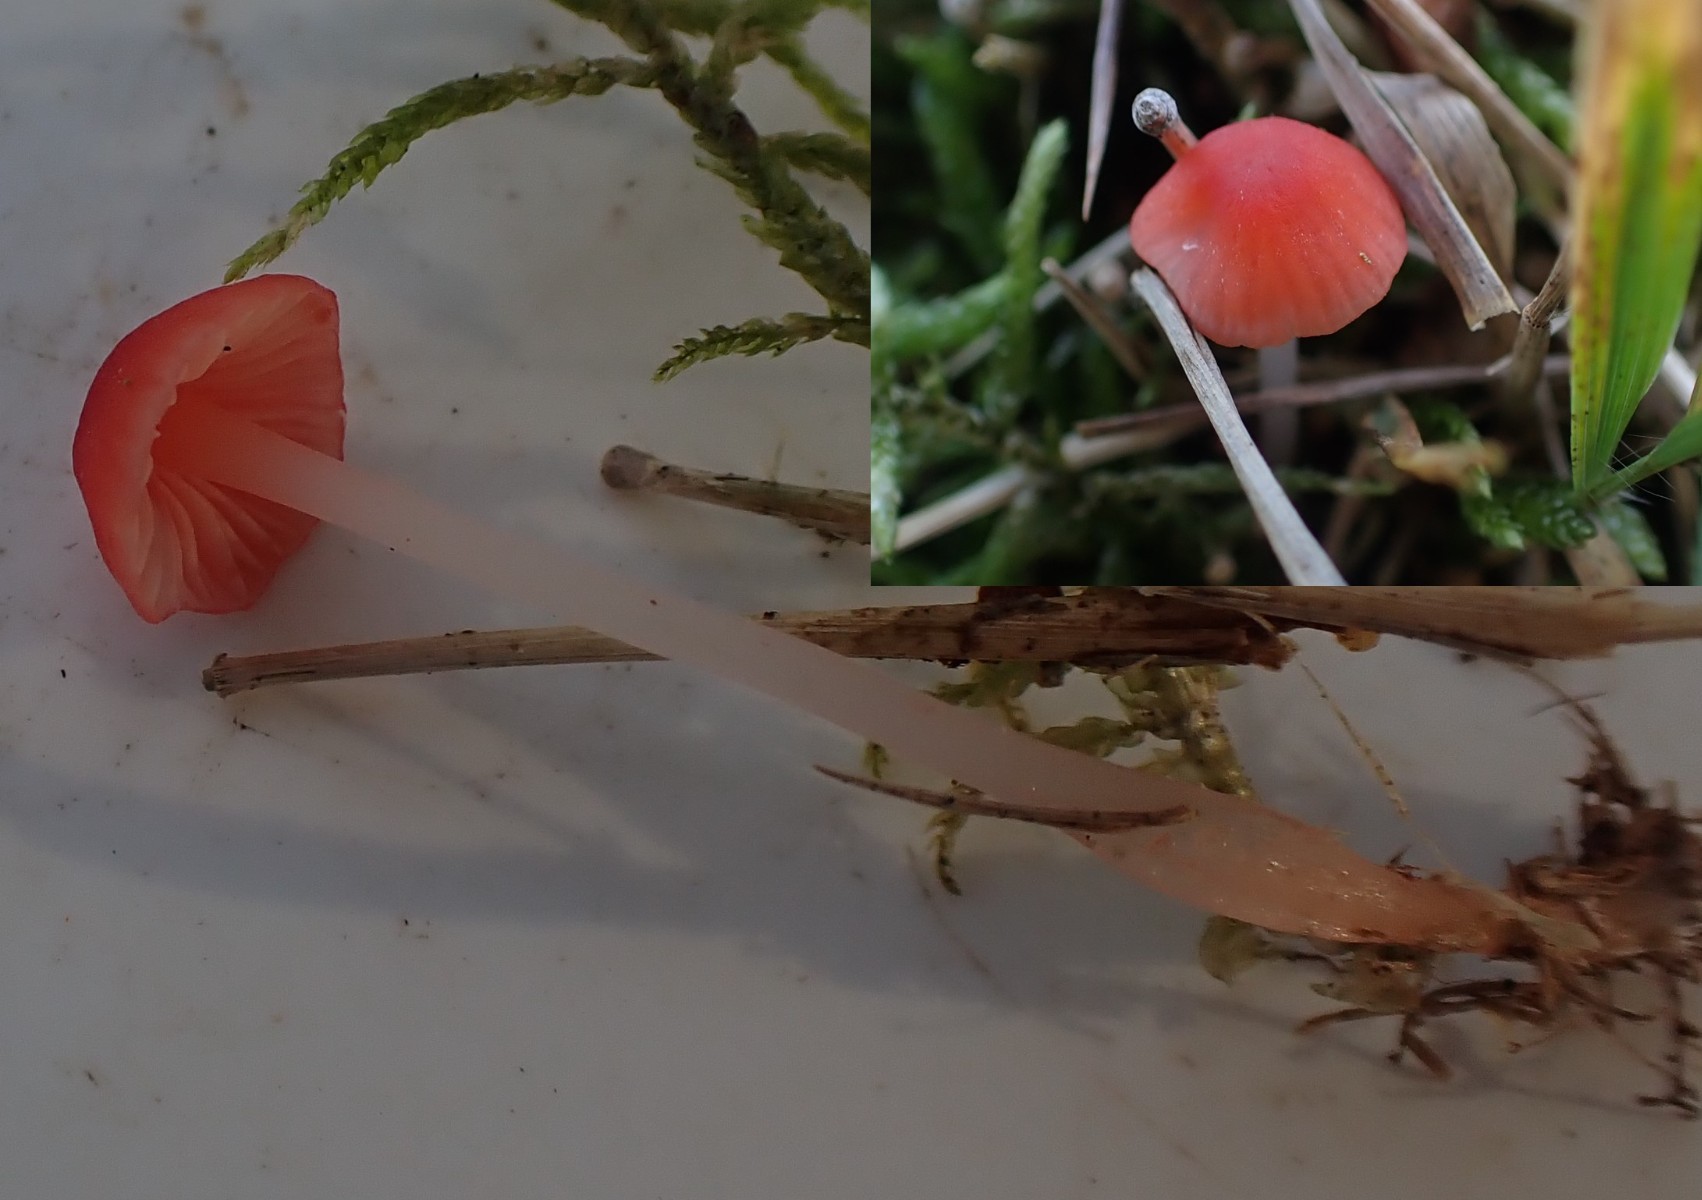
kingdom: Fungi
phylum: Basidiomycota
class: Agaricomycetes
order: Agaricales
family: Mycenaceae
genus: Atheniella
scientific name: Atheniella adonis
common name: rønnerød huesvamp
